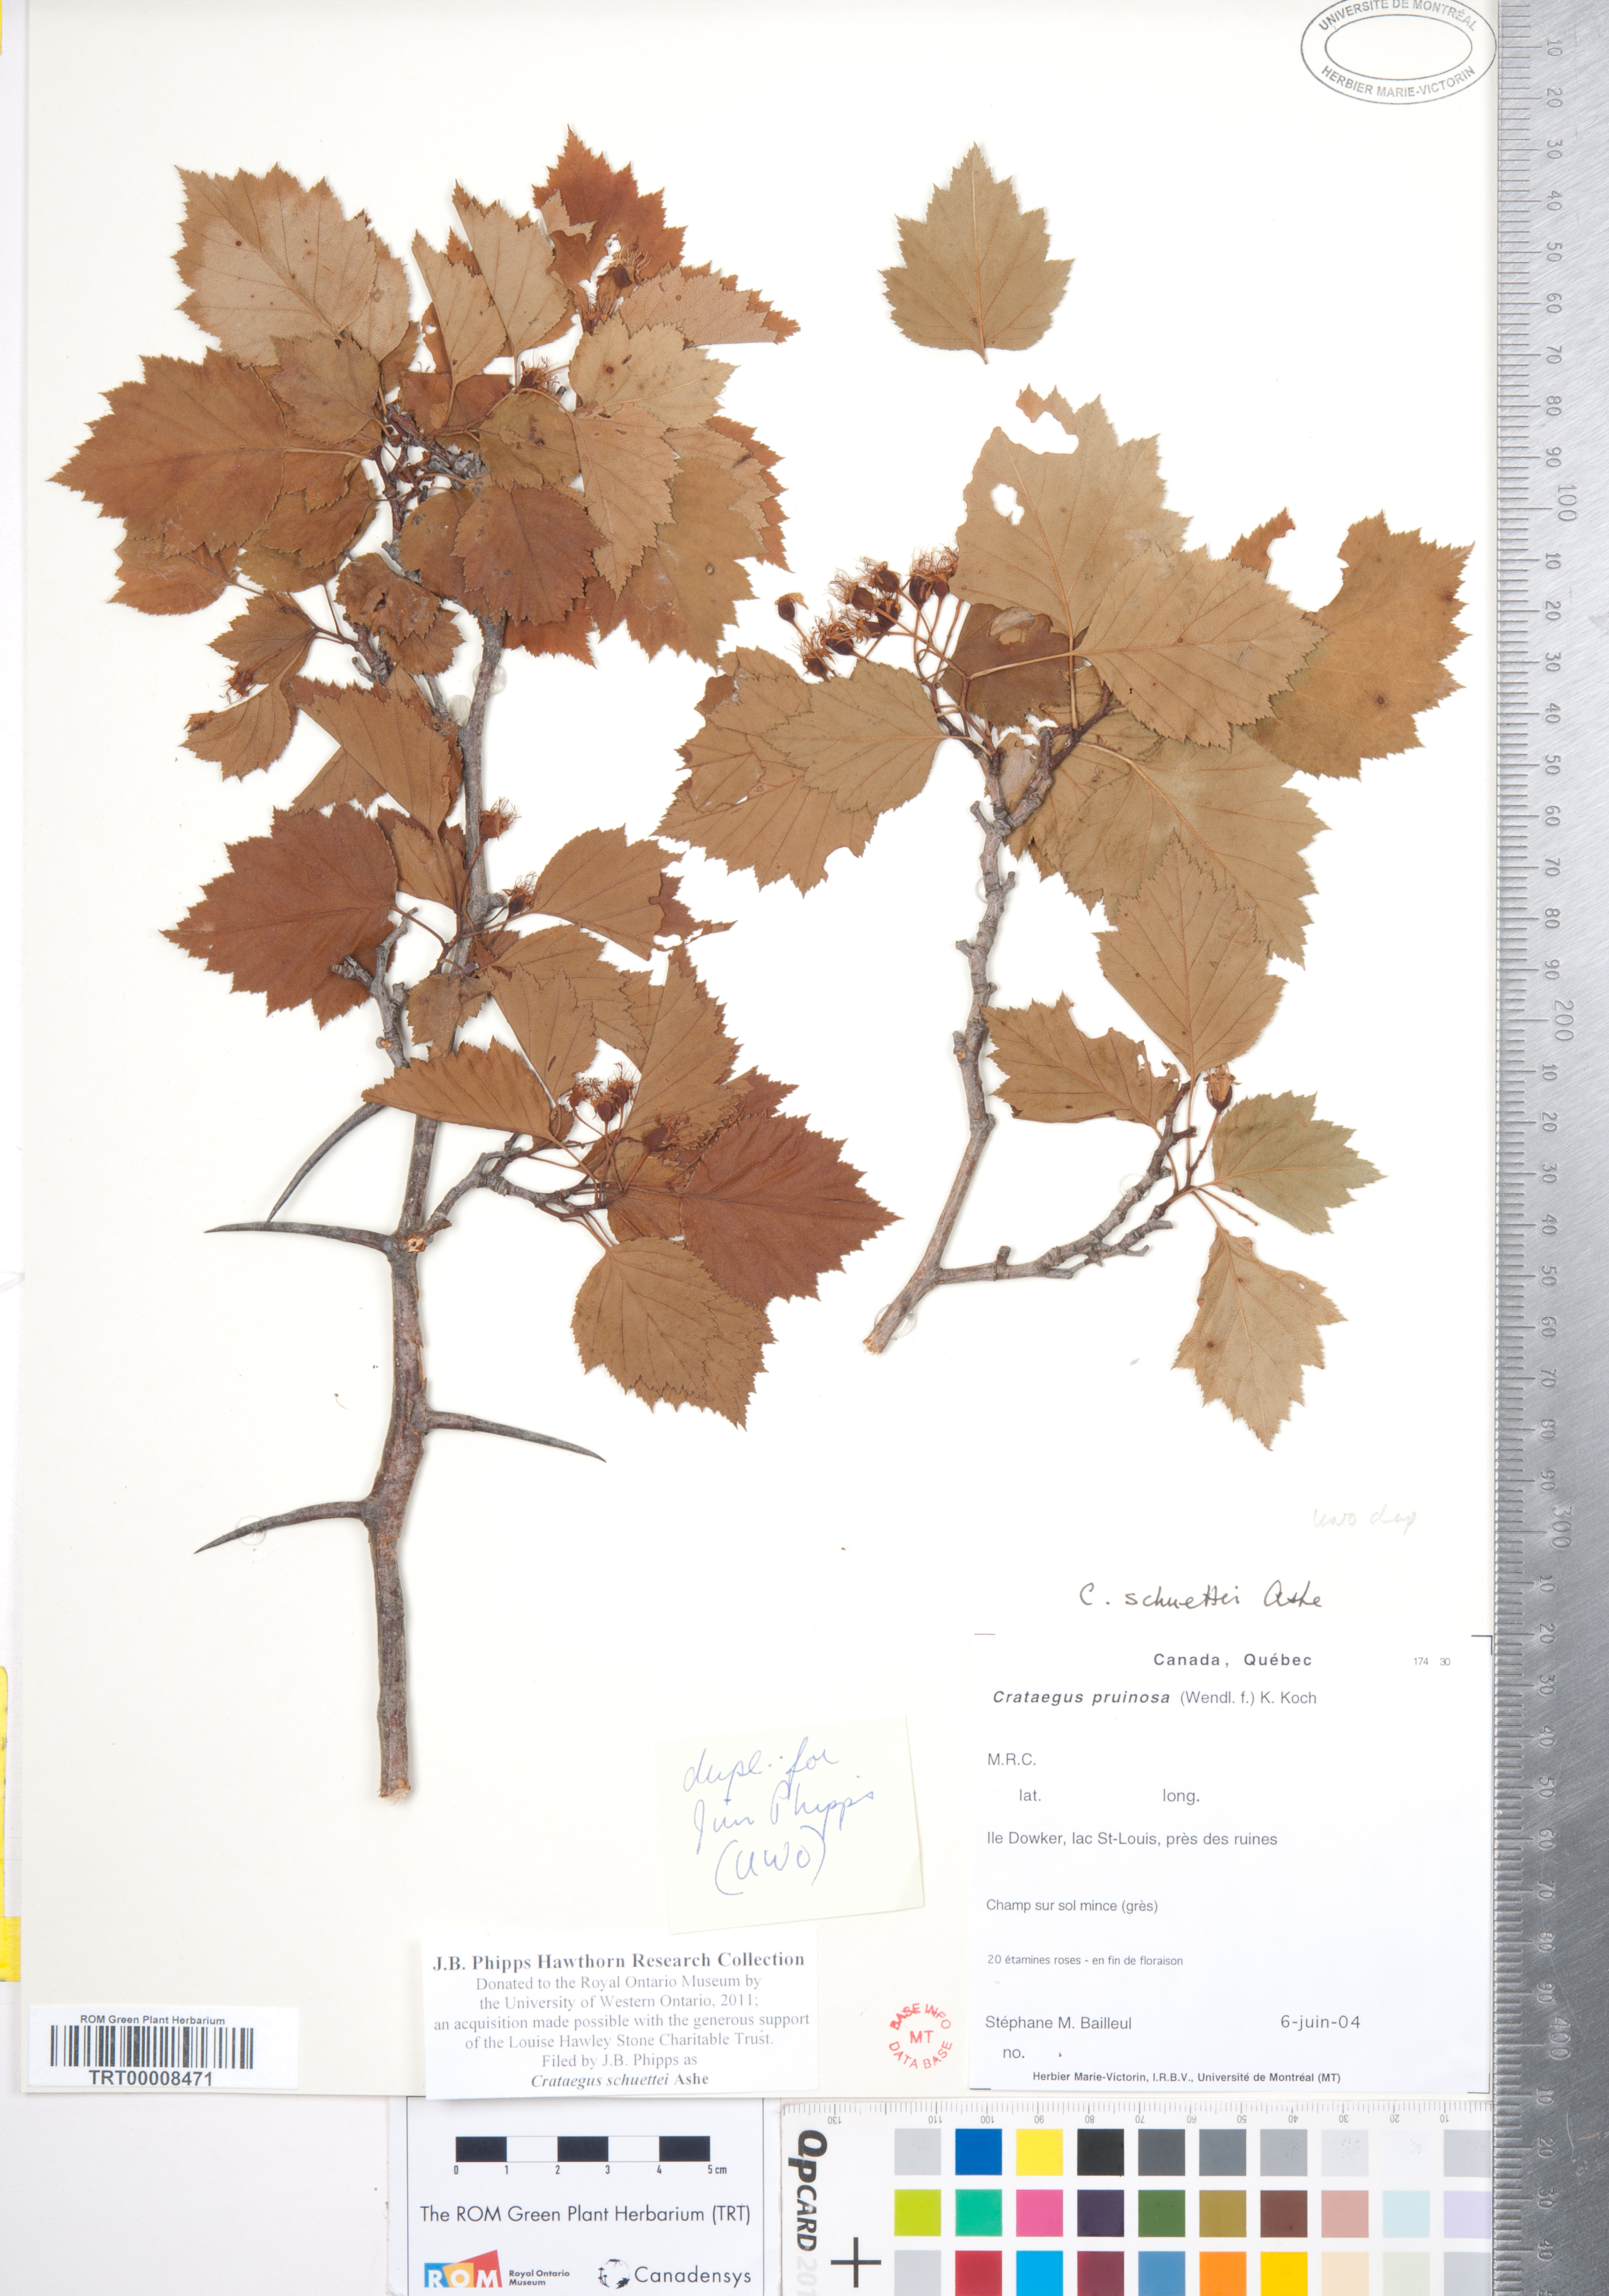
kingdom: Plantae
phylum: Tracheophyta
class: Magnoliopsida
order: Rosales
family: Rosaceae
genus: Crataegus
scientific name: Crataegus schuettei
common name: Schuette's hawthorn
